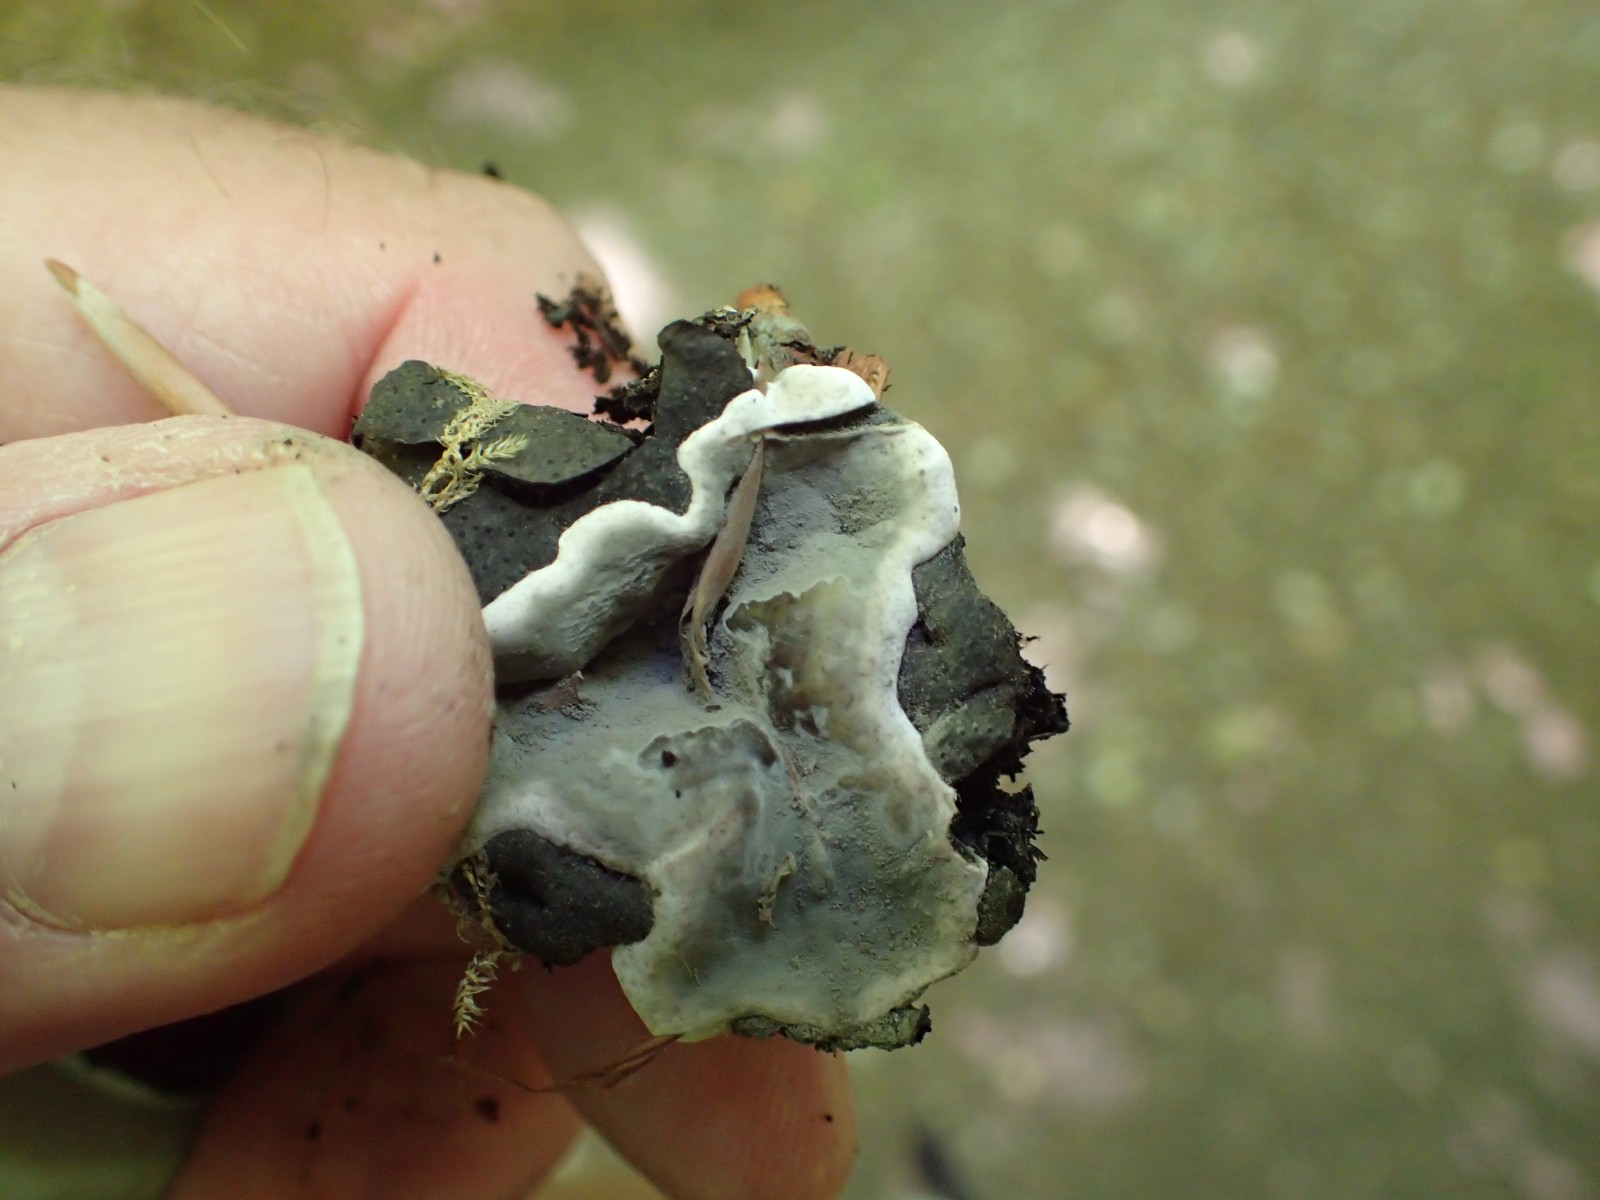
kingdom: Fungi
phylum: Ascomycota
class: Sordariomycetes
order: Xylariales
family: Xylariaceae
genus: Kretzschmaria
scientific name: Kretzschmaria deusta
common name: stor kulsvamp
